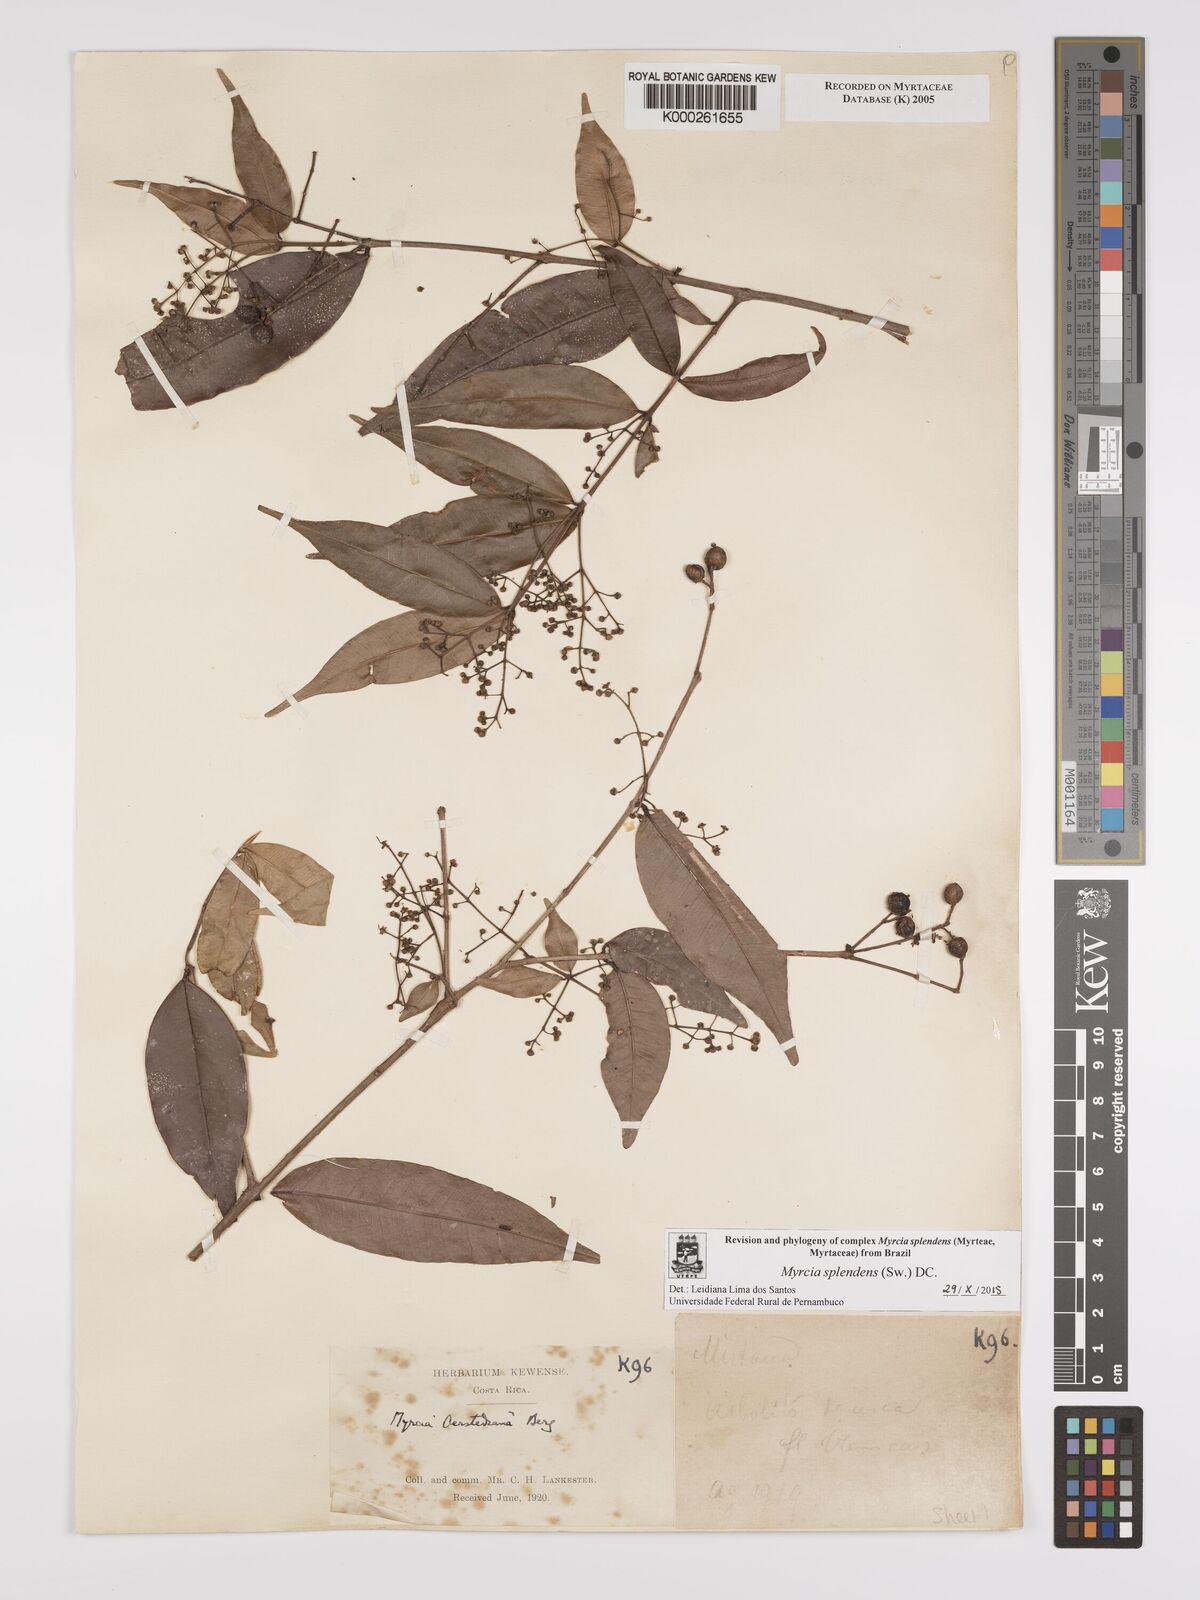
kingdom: Plantae
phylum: Tracheophyta
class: Magnoliopsida
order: Myrtales
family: Myrtaceae
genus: Myrcia
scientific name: Myrcia splendens
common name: Surinam cherry
